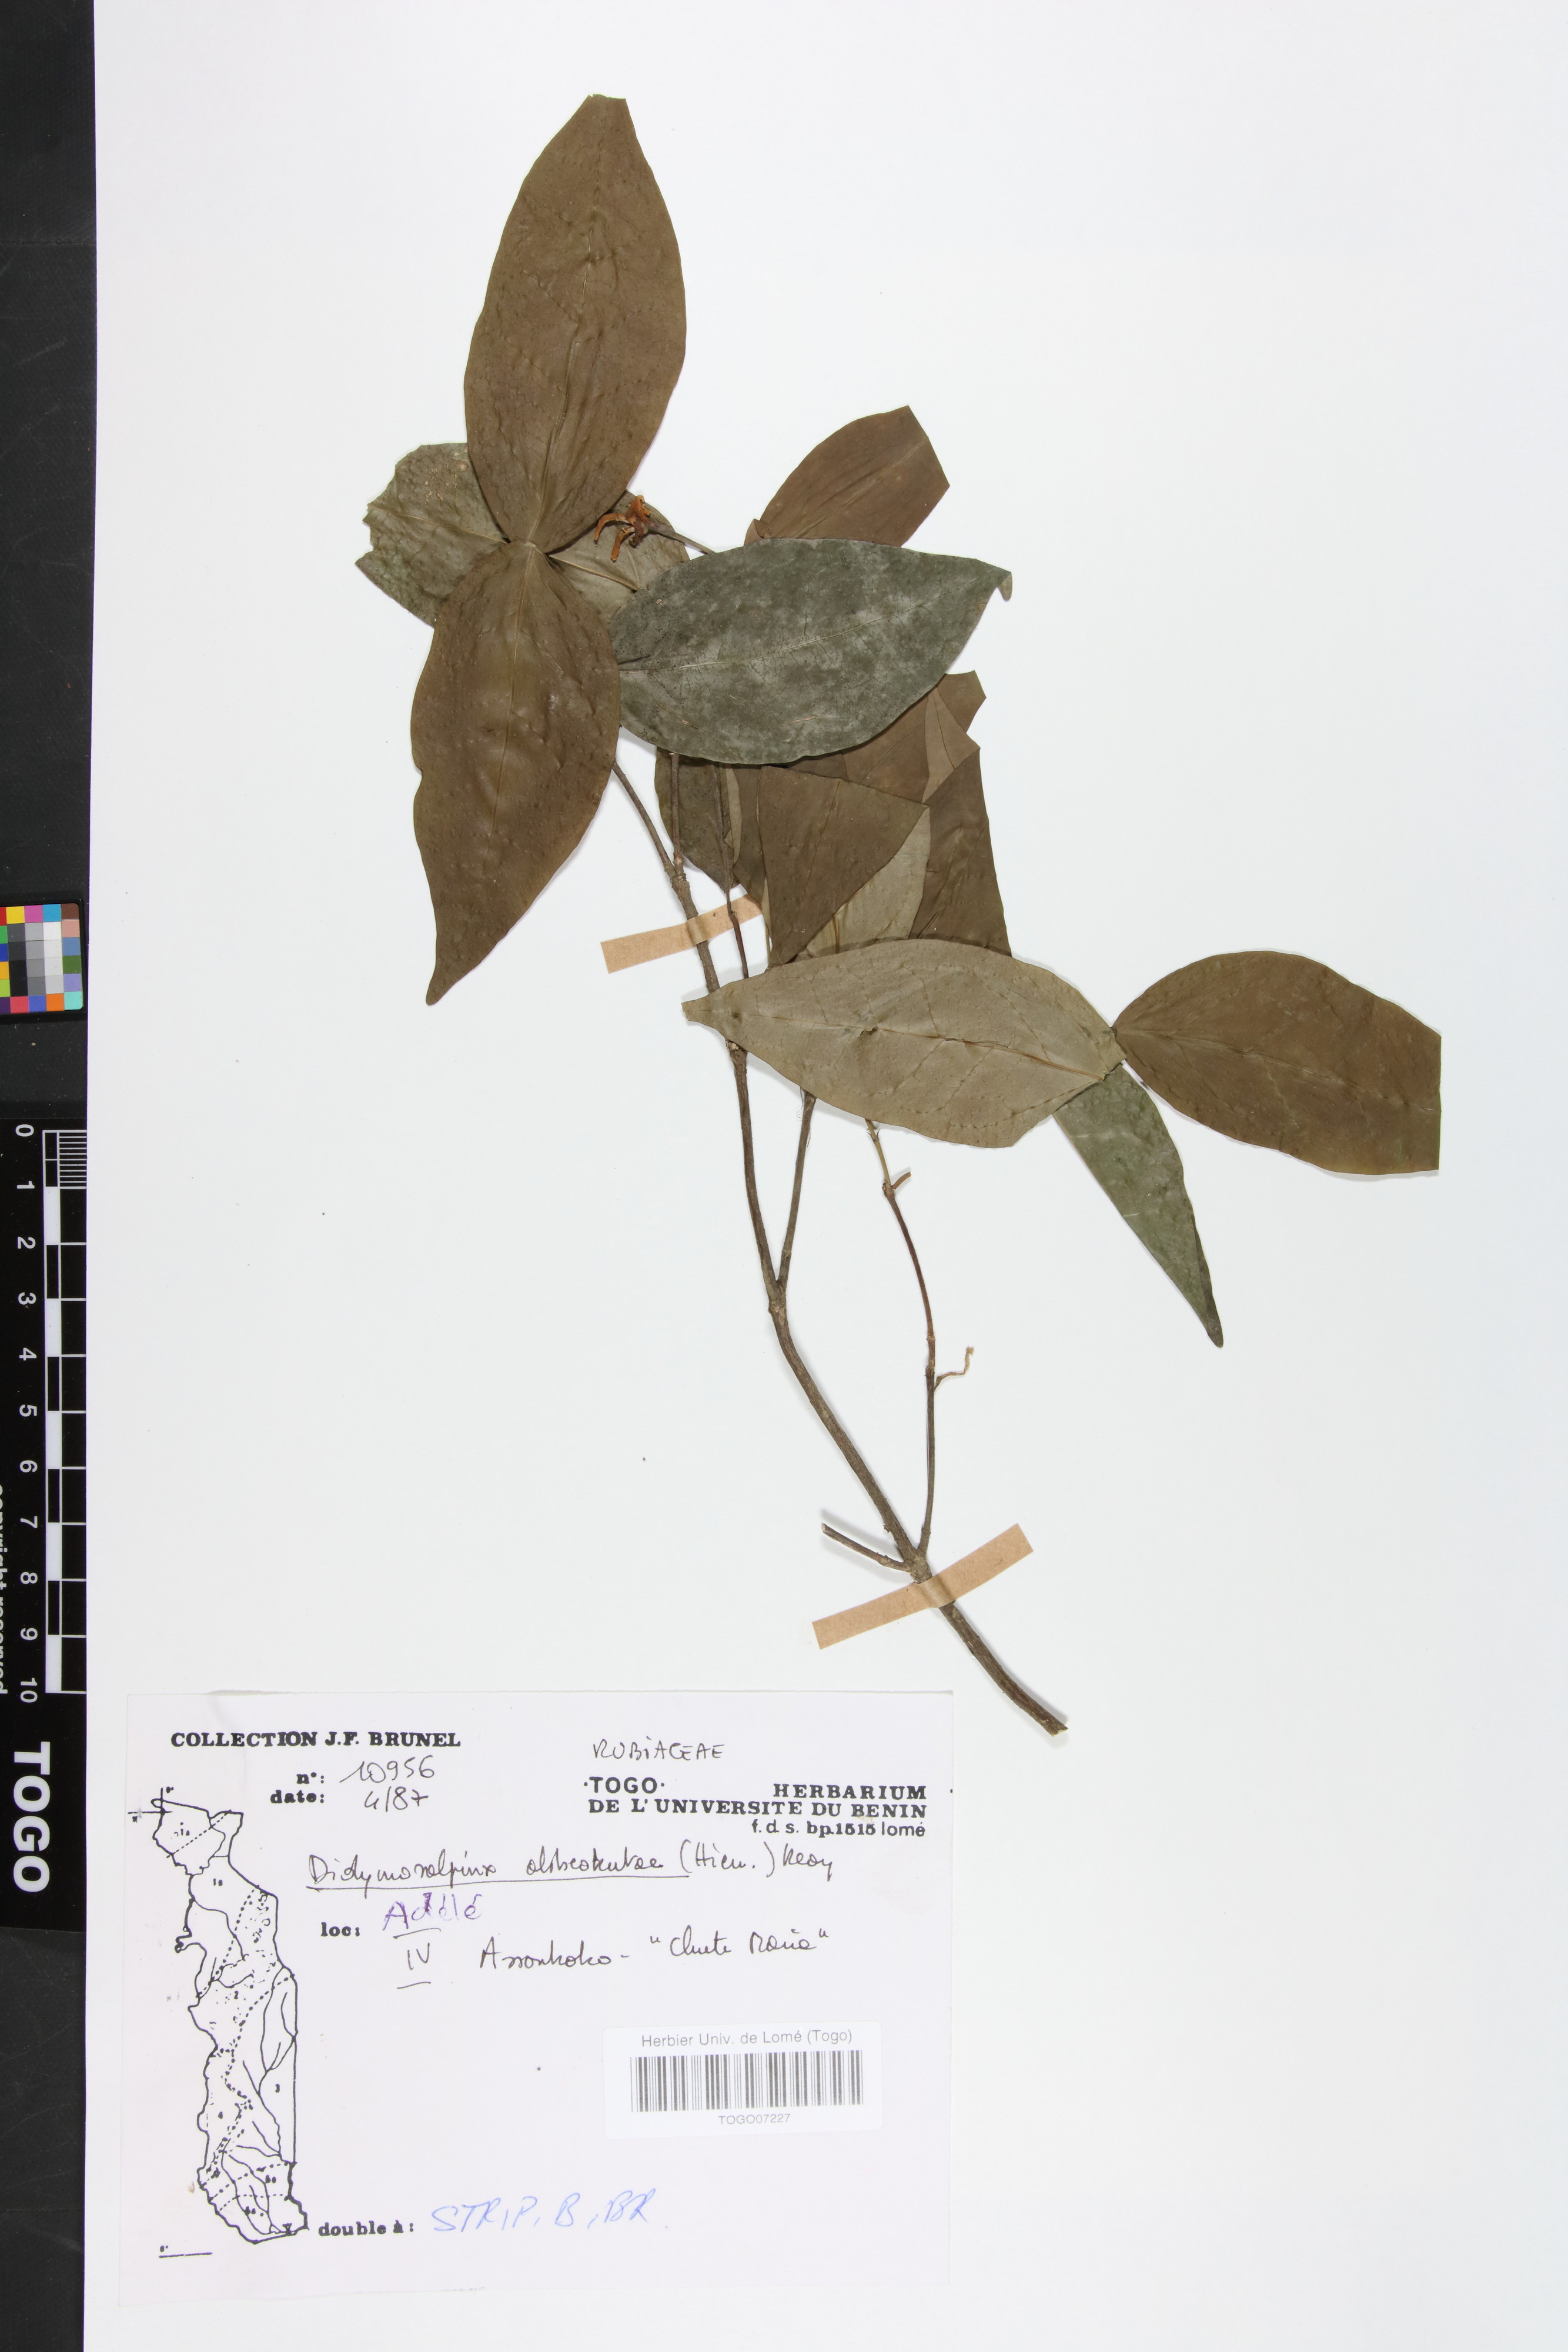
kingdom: Plantae
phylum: Tracheophyta
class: Magnoliopsida
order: Gentianales
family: Rubiaceae
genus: Didymosalpinx
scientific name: Didymosalpinx abbeokutae
